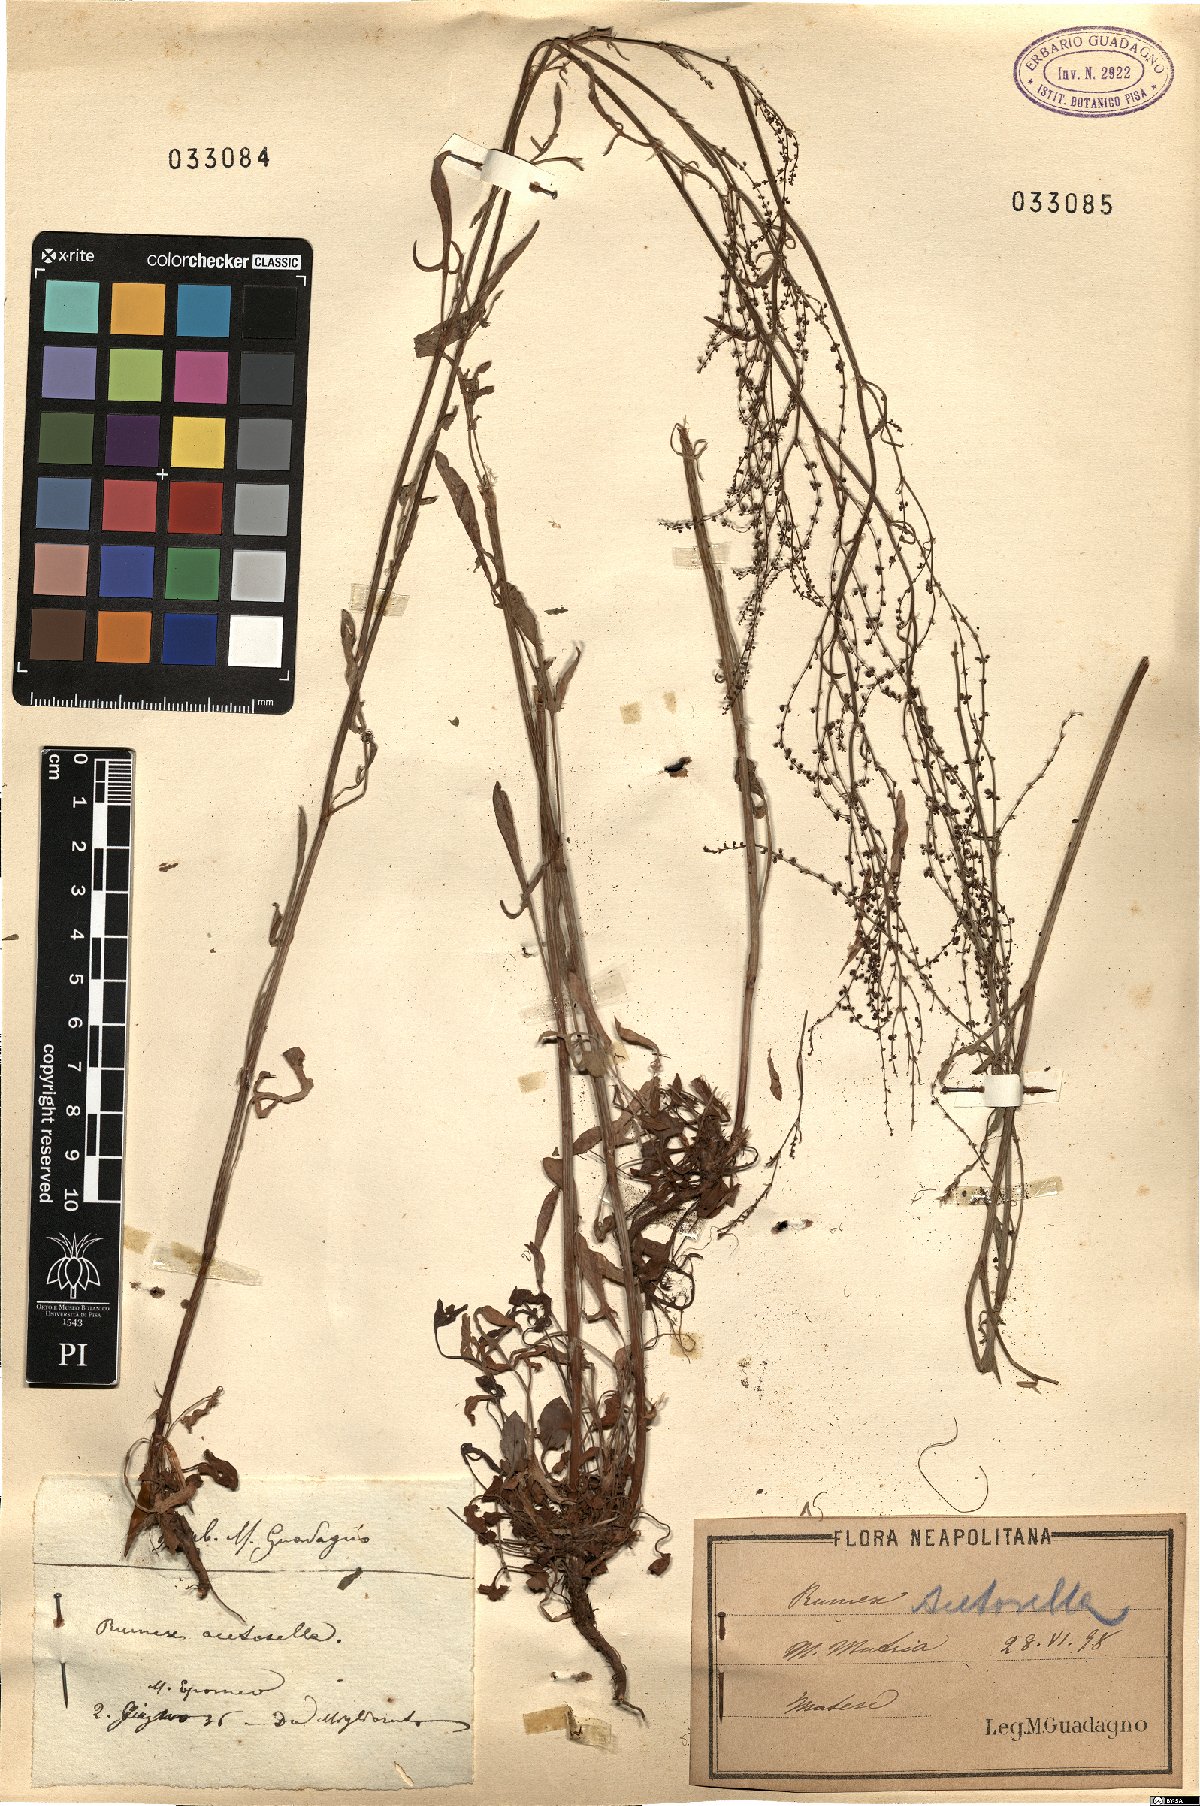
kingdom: Plantae
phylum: Tracheophyta
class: Magnoliopsida
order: Caryophyllales
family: Polygonaceae
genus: Rumex
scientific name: Rumex acetosella
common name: Common sheep sorrel
